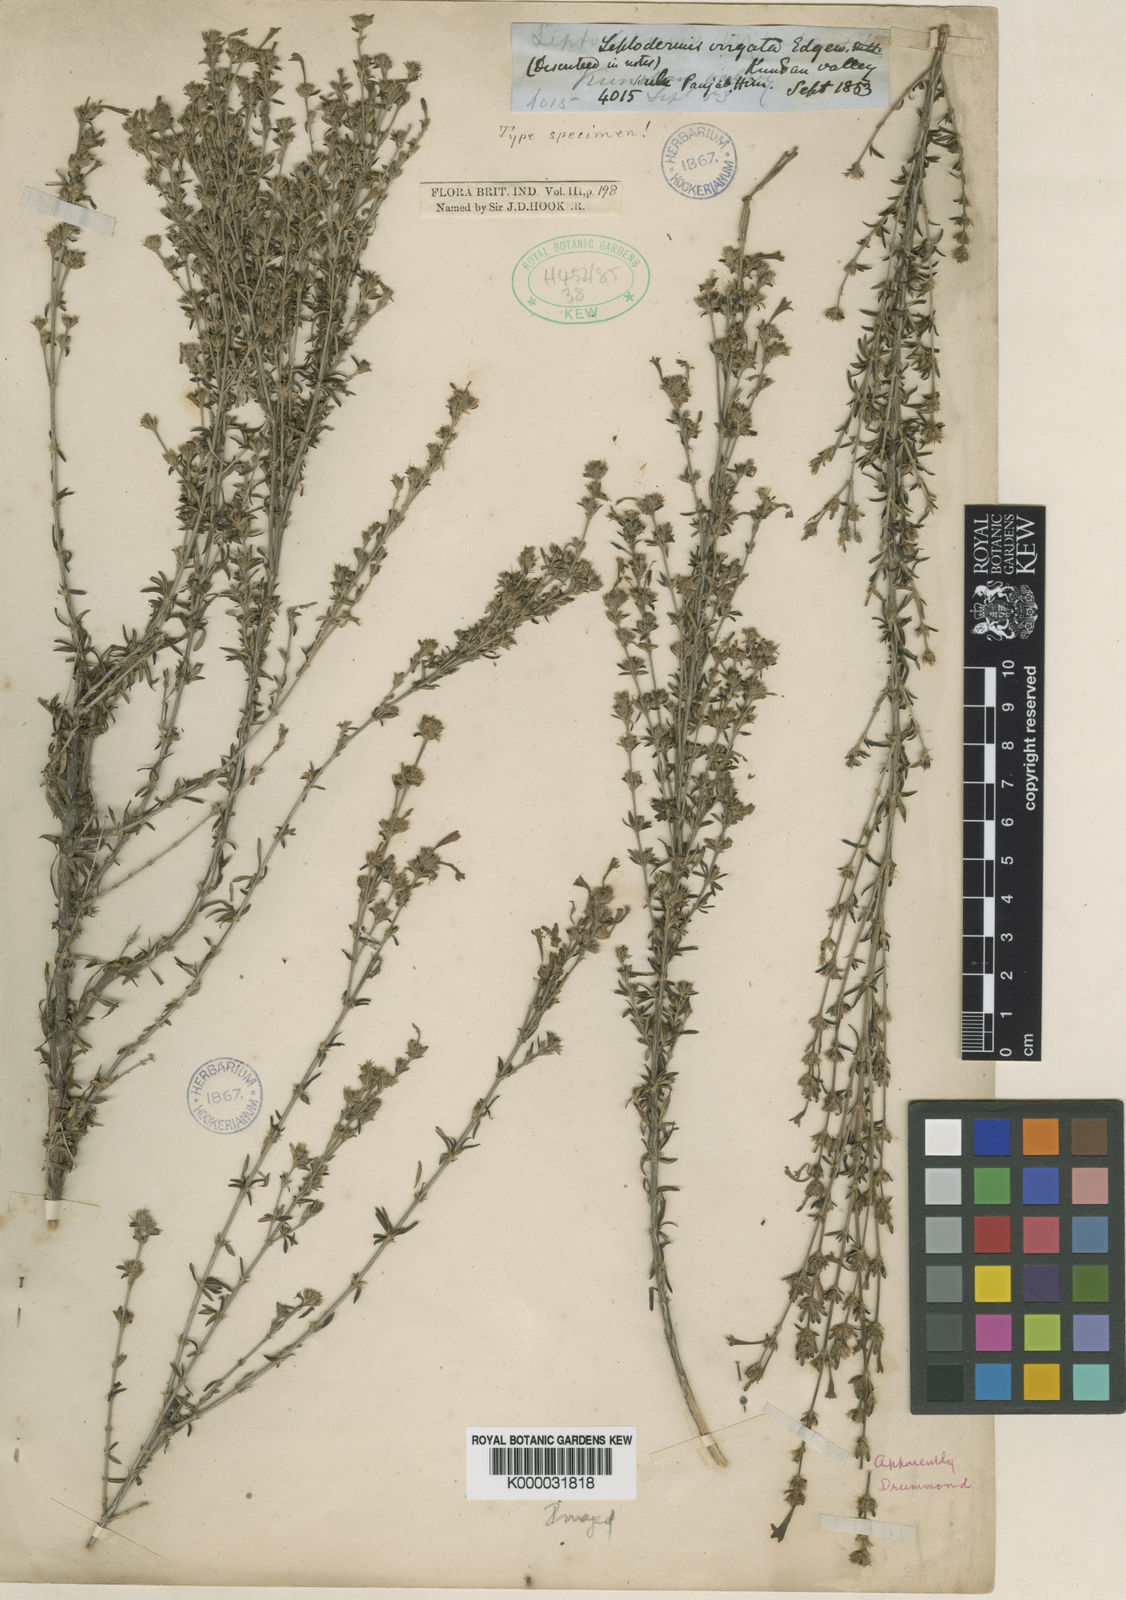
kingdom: Plantae
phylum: Tracheophyta
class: Magnoliopsida
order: Gentianales
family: Rubiaceae
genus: Leptodermis
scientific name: Leptodermis
